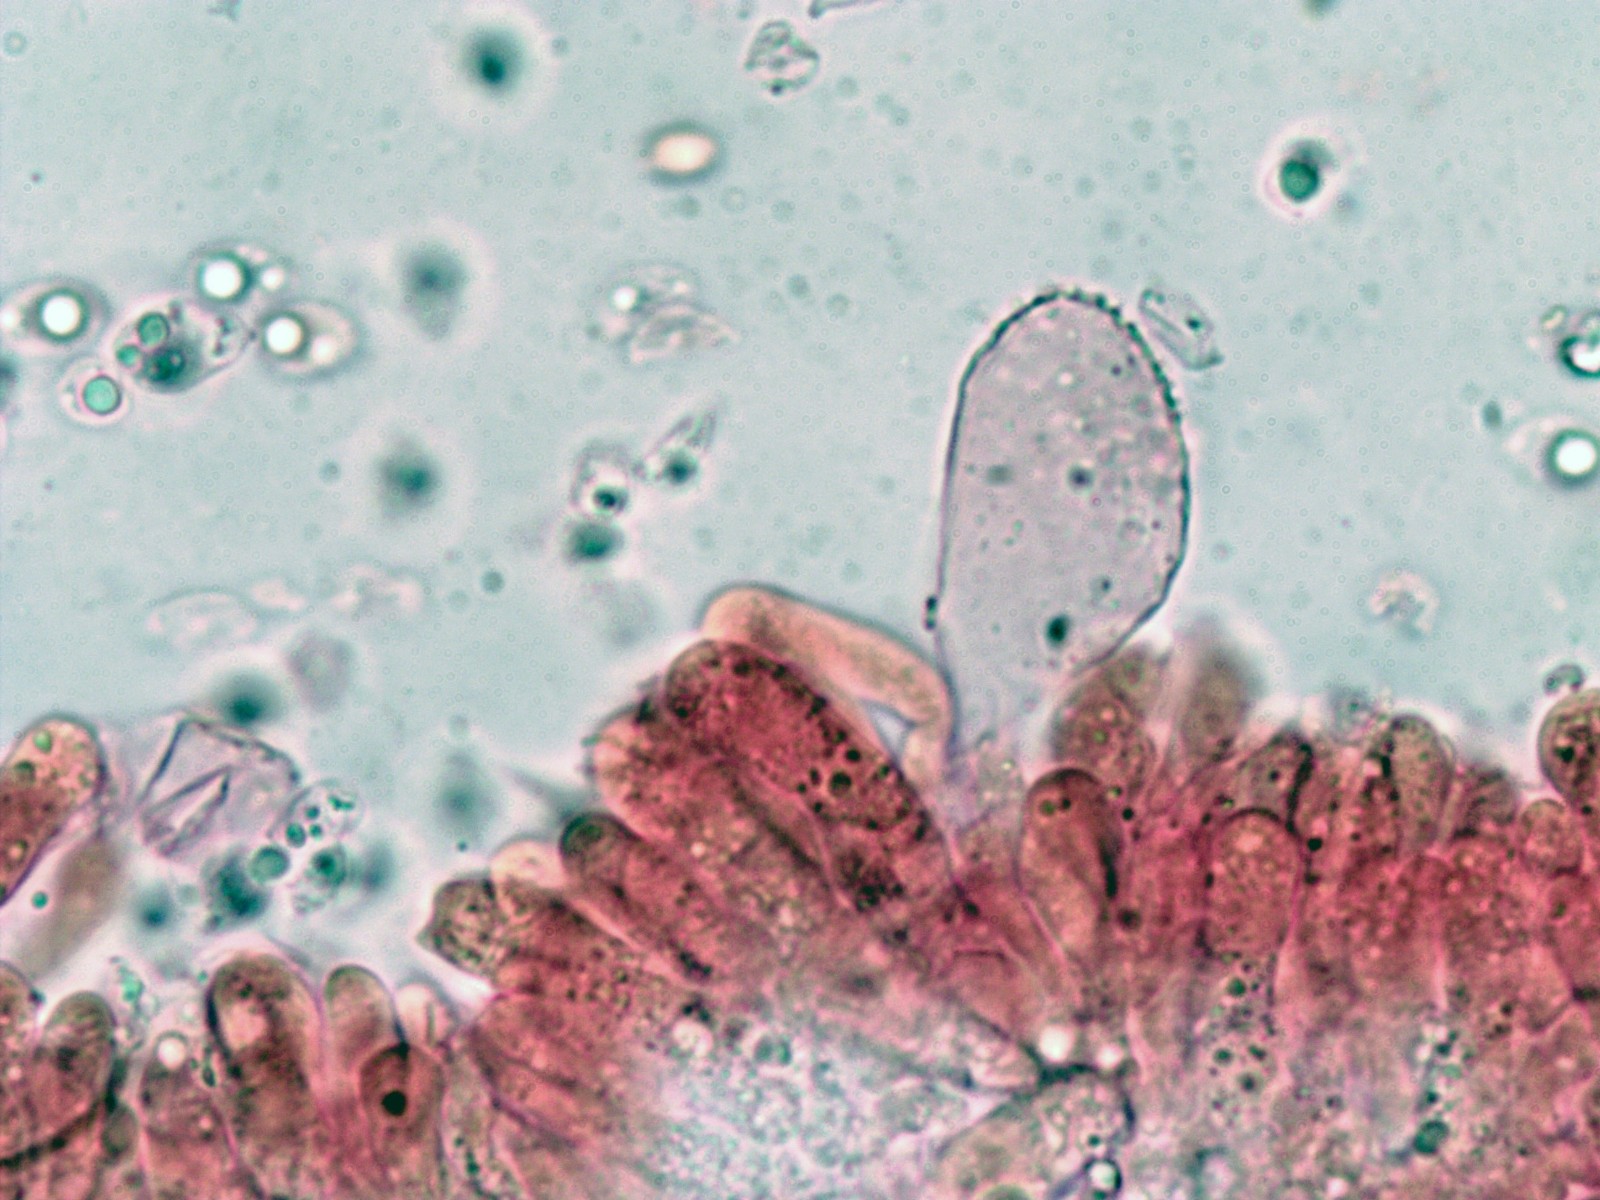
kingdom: Fungi
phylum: Basidiomycota
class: Agaricomycetes
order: Agaricales
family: Mycenaceae
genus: Mycena
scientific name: Mycena flavescens
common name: grågul huesvamp
